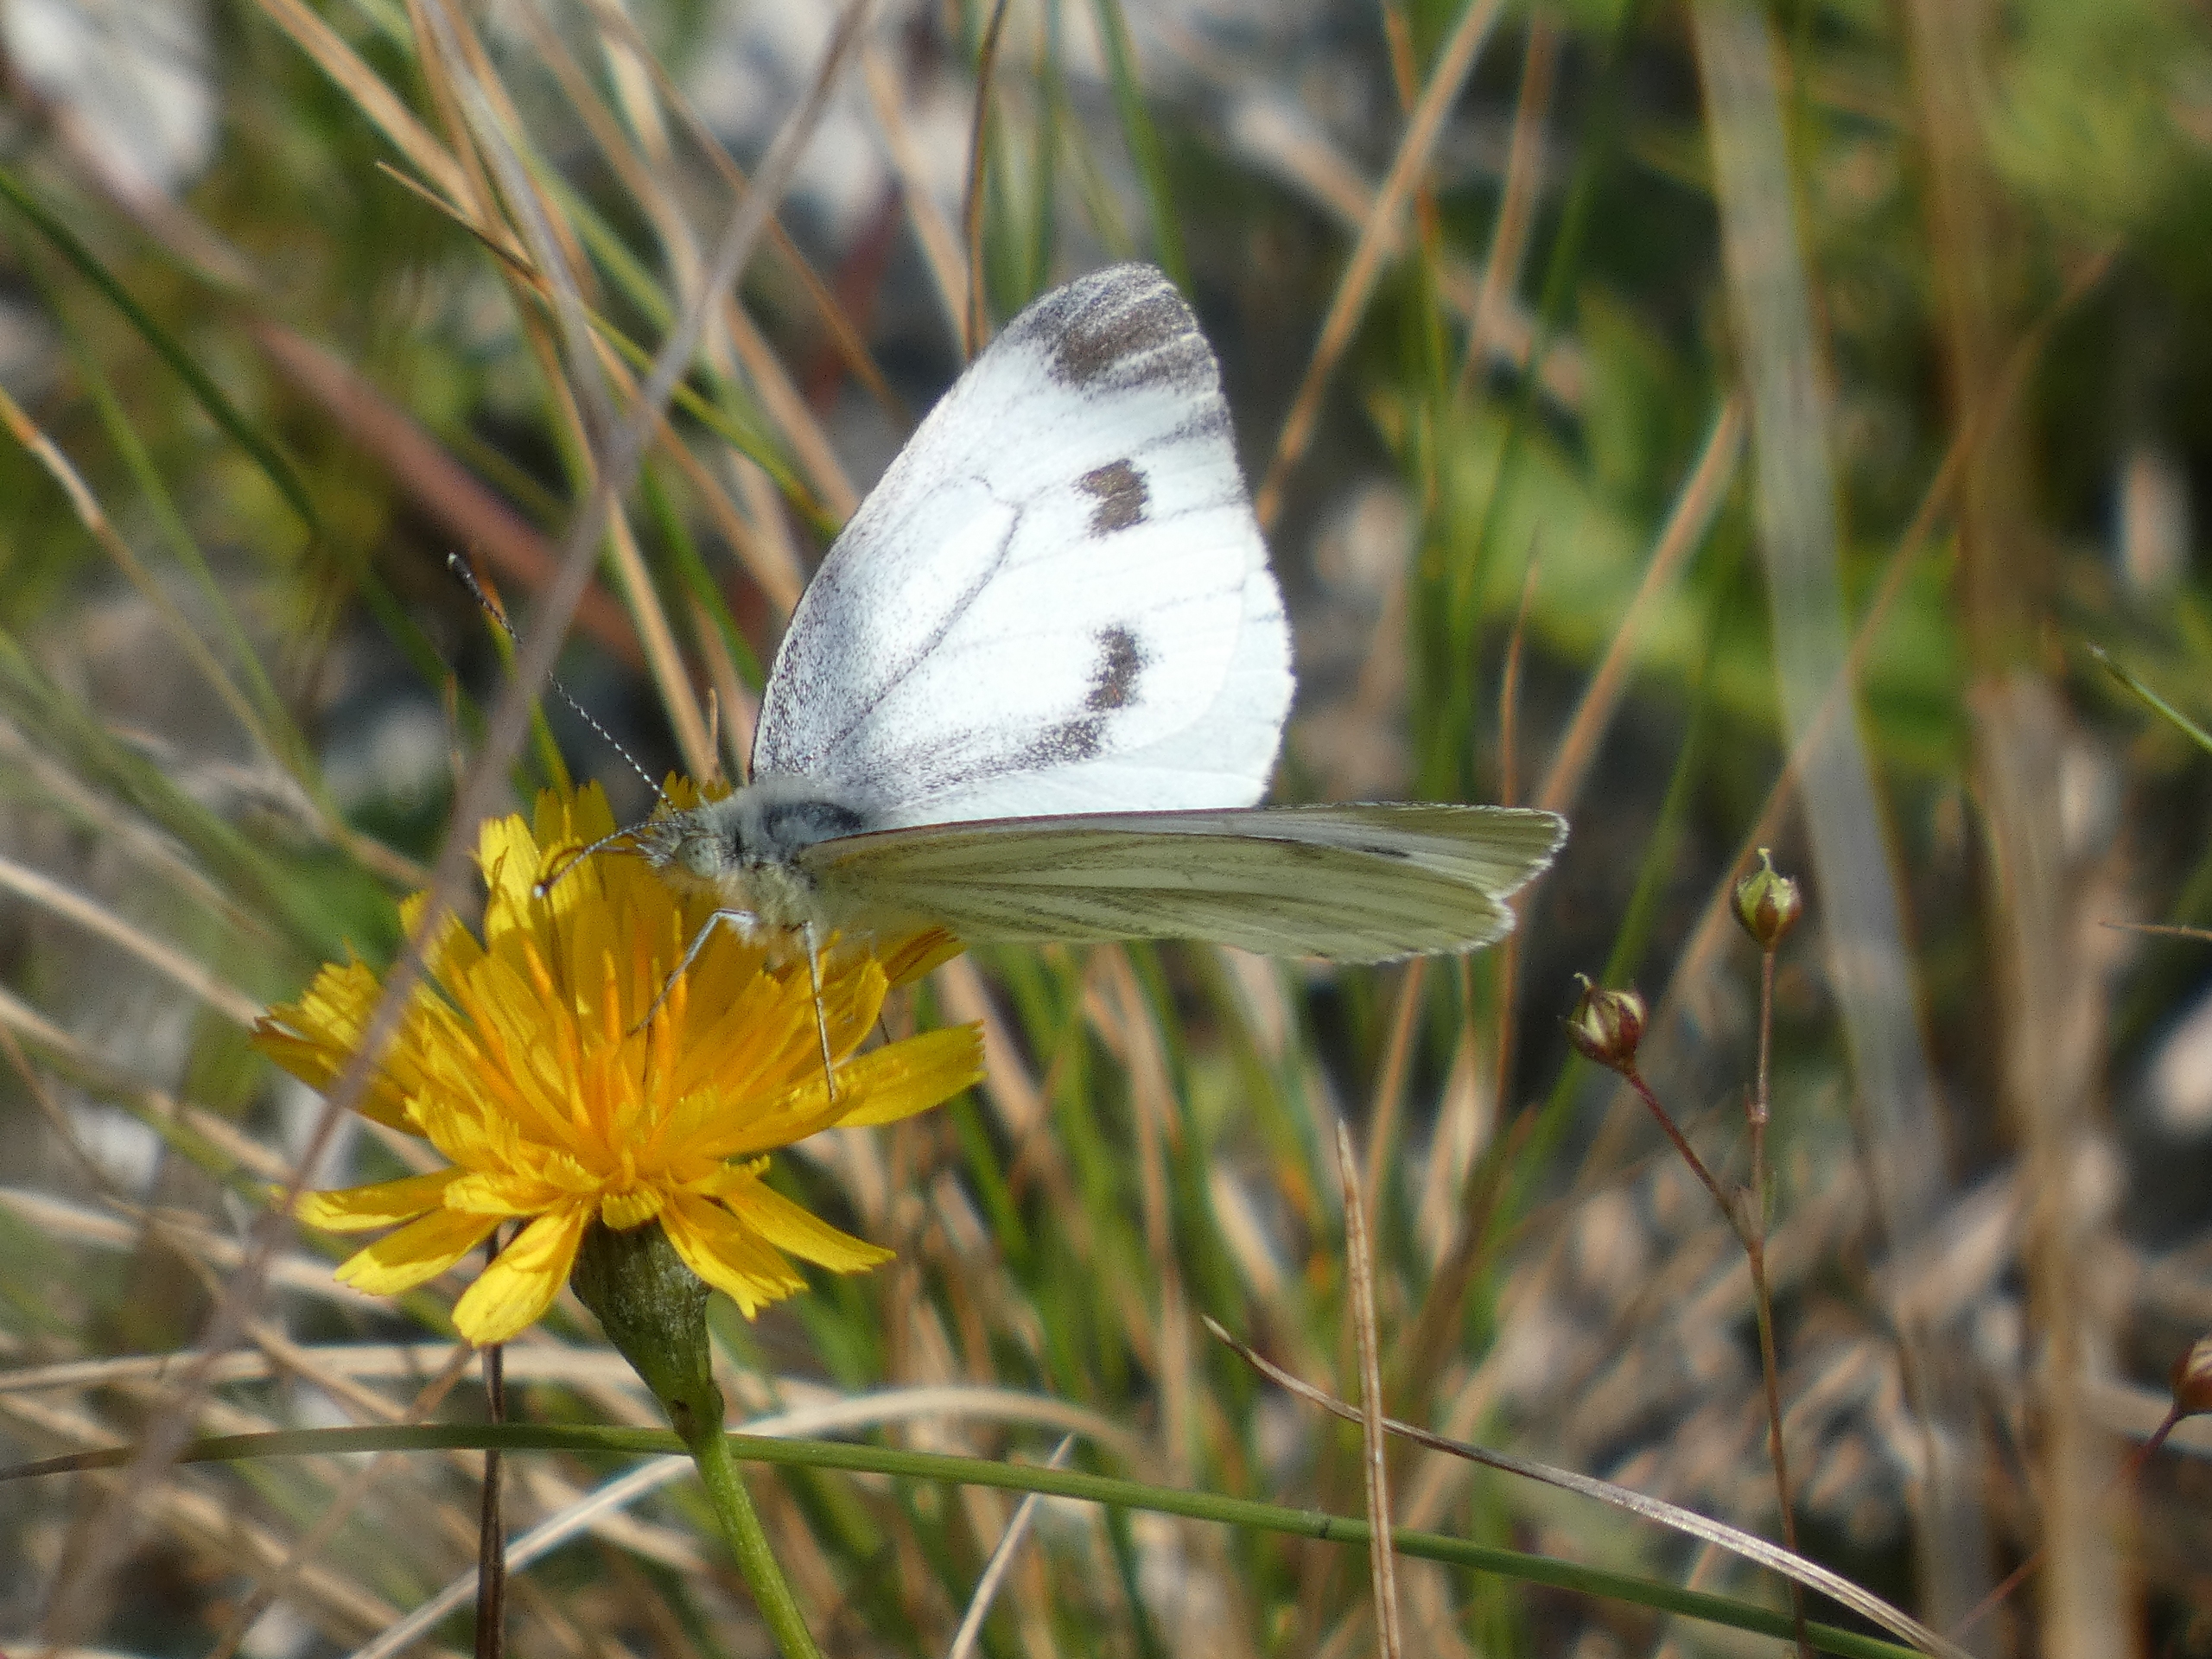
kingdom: Animalia
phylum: Arthropoda
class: Insecta
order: Lepidoptera
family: Pieridae
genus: Pieris
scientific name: Pieris napi
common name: Grønåret kålsommerfugl
